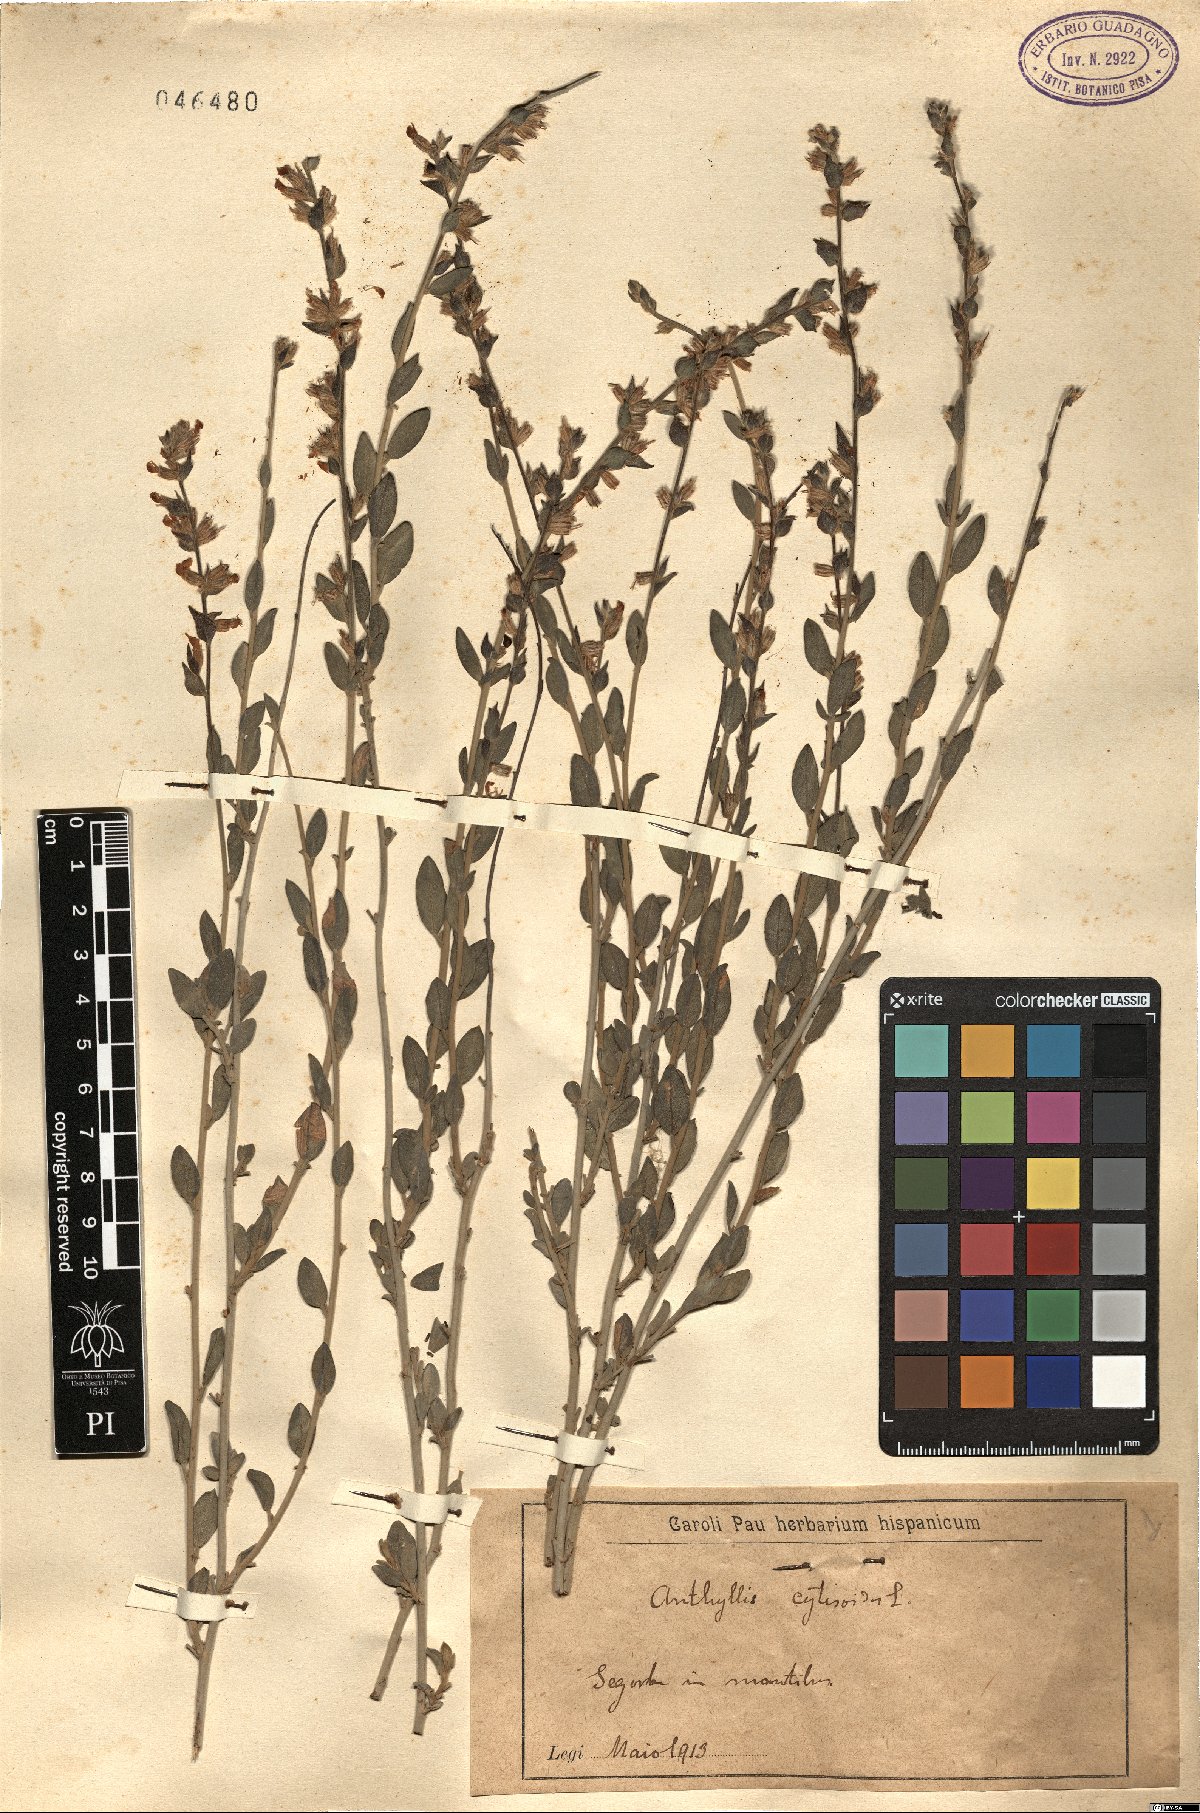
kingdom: Plantae
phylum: Tracheophyta
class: Magnoliopsida
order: Fabales
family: Fabaceae
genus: Anthyllis
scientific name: Anthyllis cytisoides
